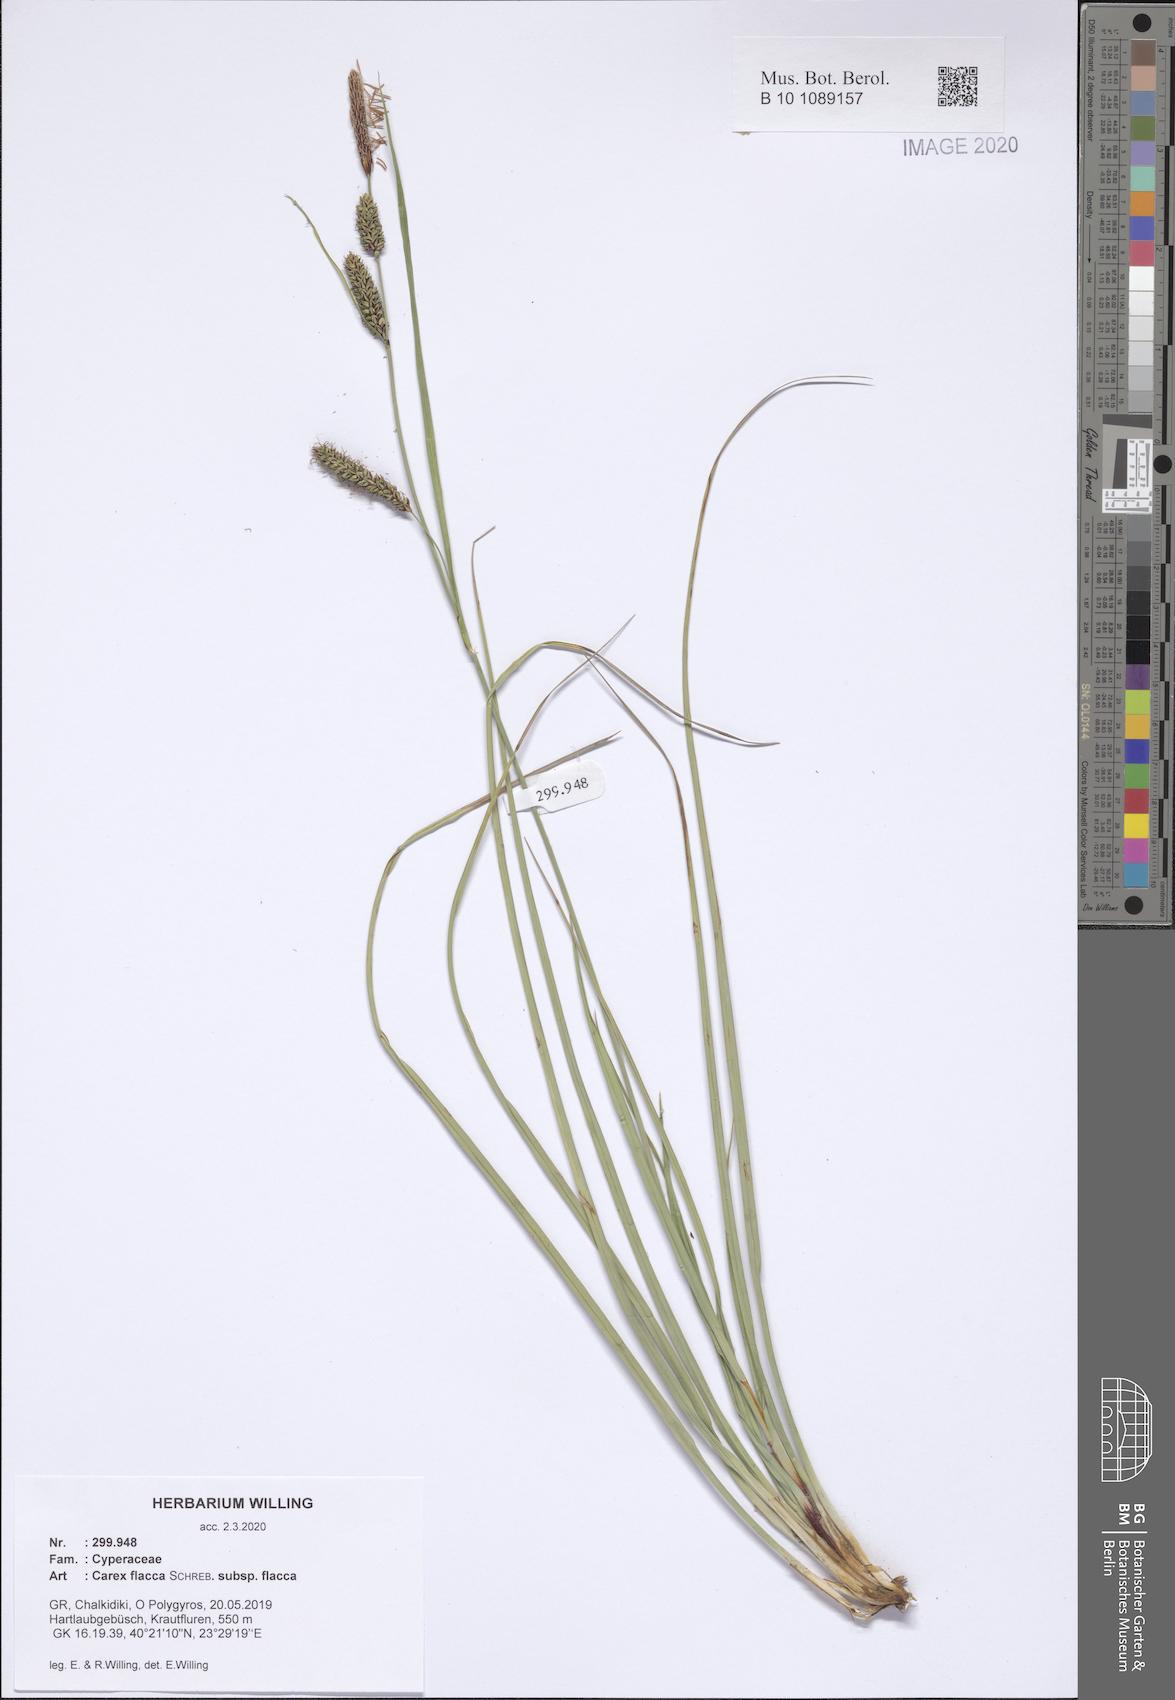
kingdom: Plantae
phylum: Tracheophyta
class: Liliopsida
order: Poales
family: Cyperaceae
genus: Carex
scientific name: Carex flacca
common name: Glaucous sedge
